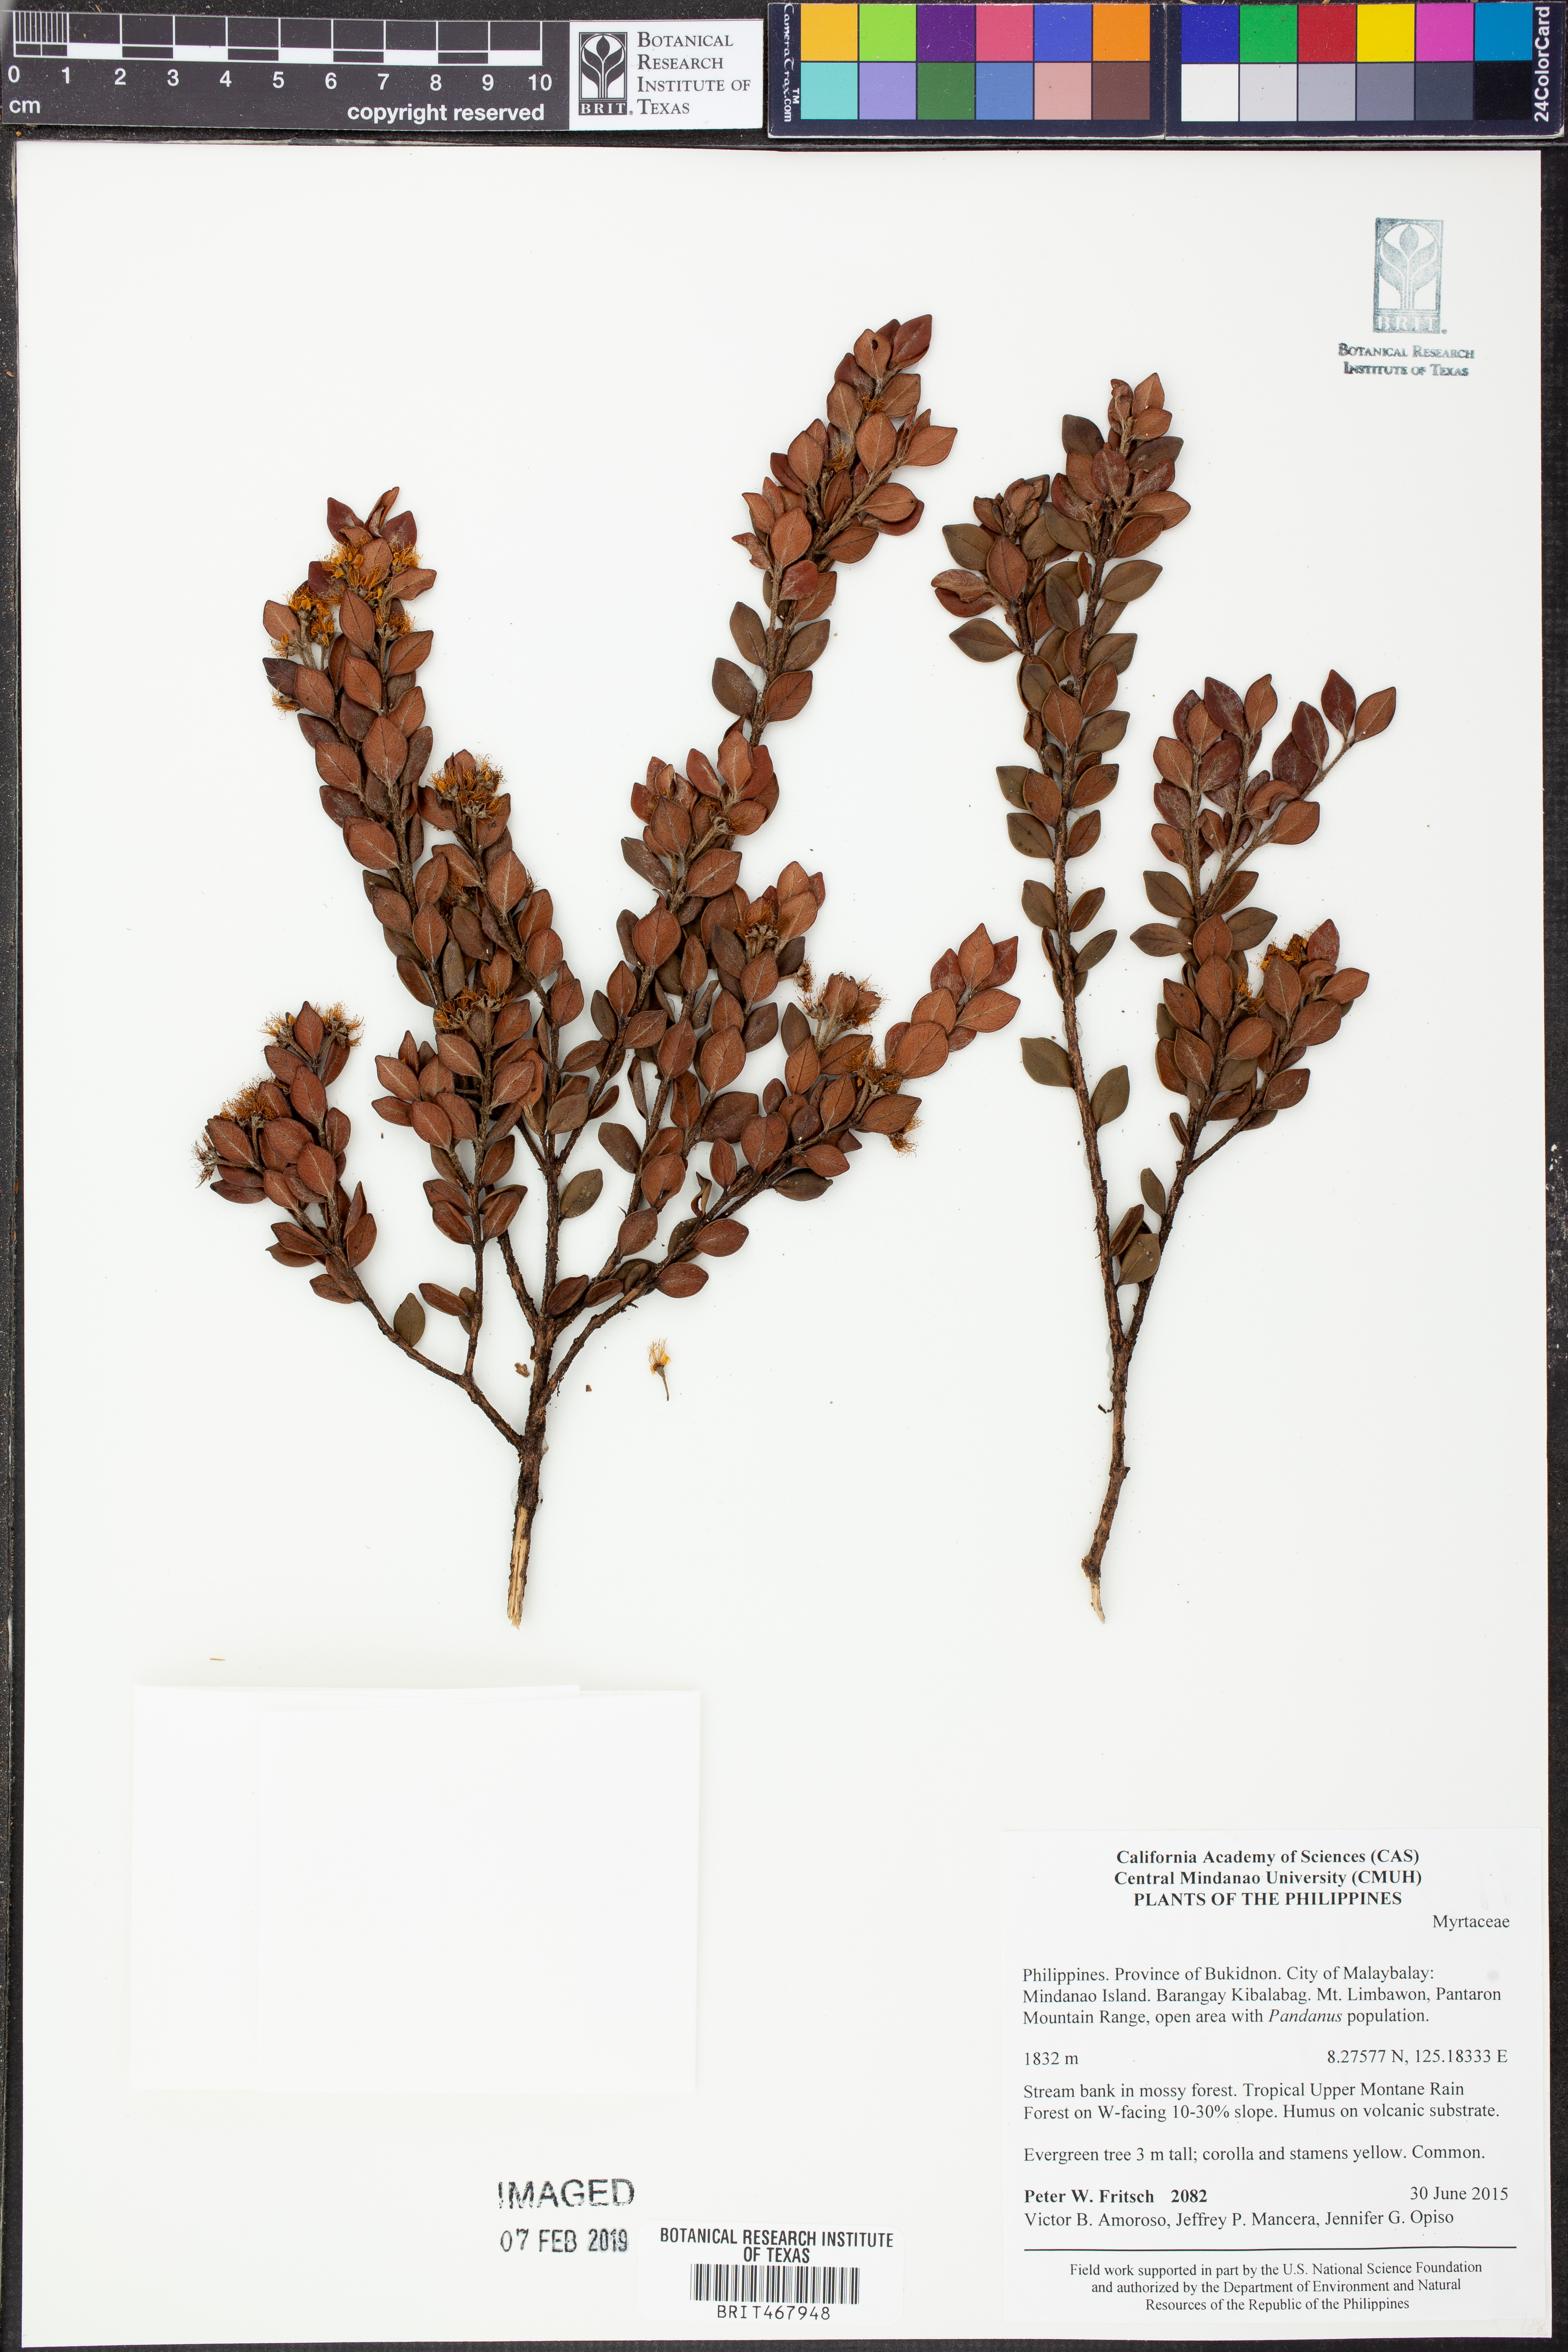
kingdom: Plantae
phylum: Tracheophyta
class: Magnoliopsida
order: Myrtales
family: Myrtaceae
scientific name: Myrtaceae
